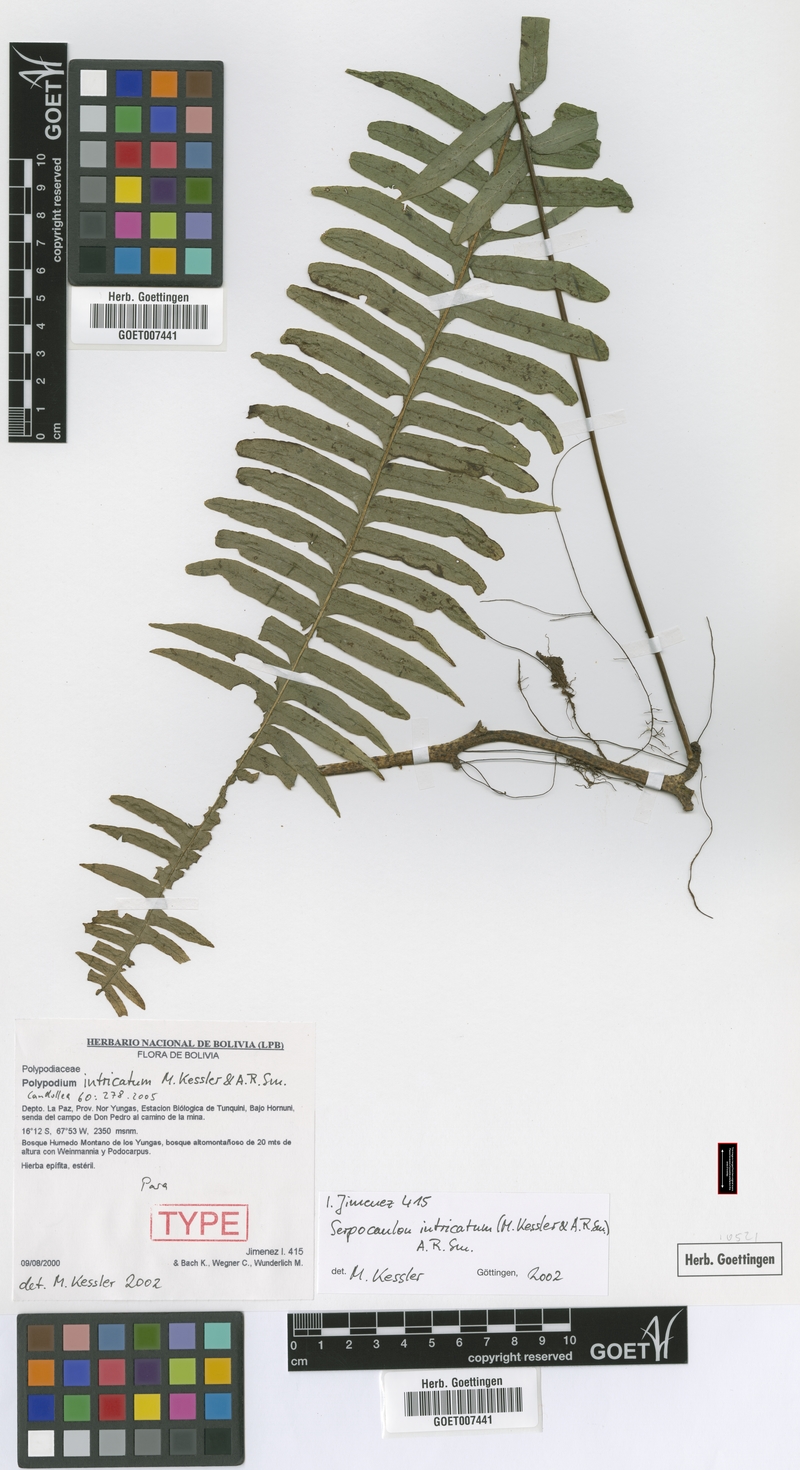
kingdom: Plantae
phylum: Tracheophyta
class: Polypodiopsida
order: Polypodiales
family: Polypodiaceae
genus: Serpocaulon
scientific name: Serpocaulon intricatum
